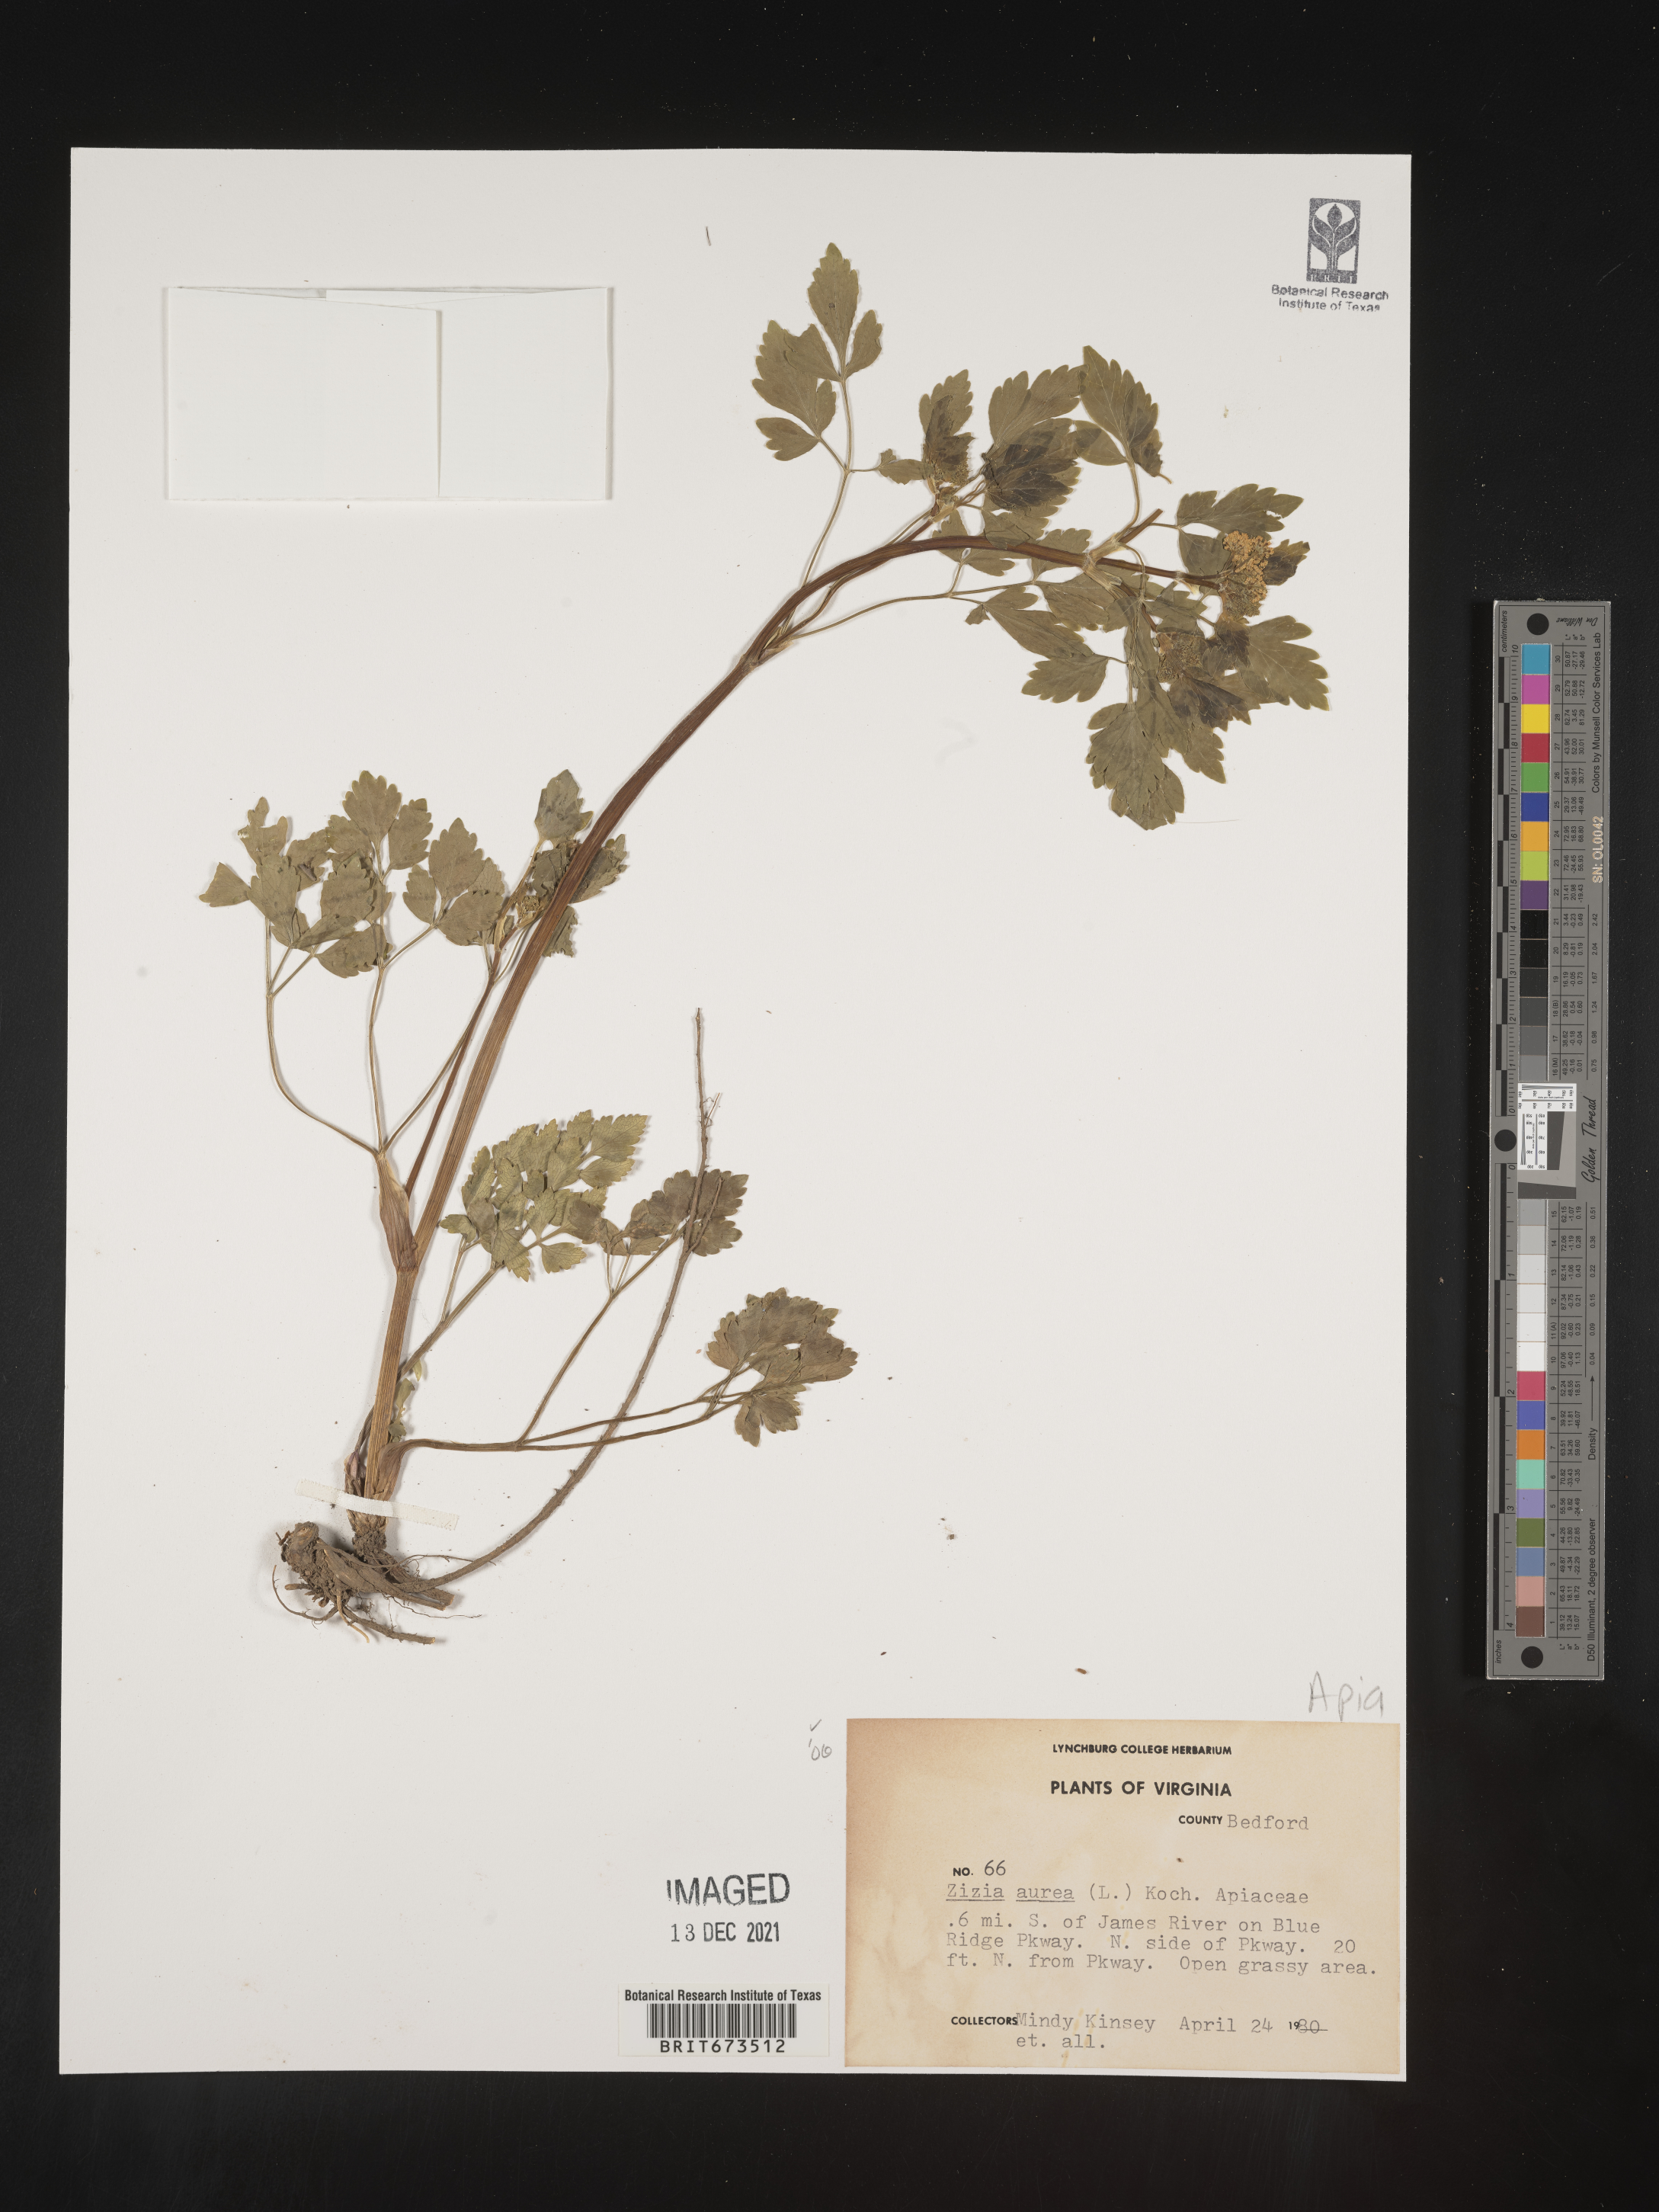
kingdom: Plantae
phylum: Tracheophyta
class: Magnoliopsida
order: Apiales
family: Apiaceae
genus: Zizia
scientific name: Zizia aurea
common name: Golden alexanders
